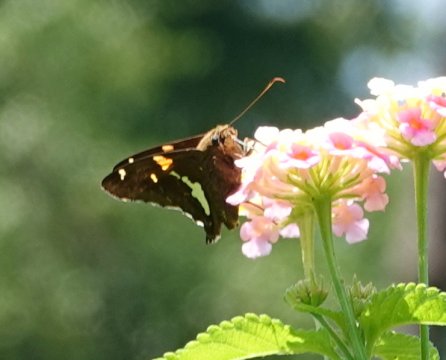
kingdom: Animalia
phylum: Arthropoda
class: Insecta
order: Lepidoptera
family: Hesperiidae
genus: Epargyreus
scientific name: Epargyreus clarus
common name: Silver-spotted Skipper
